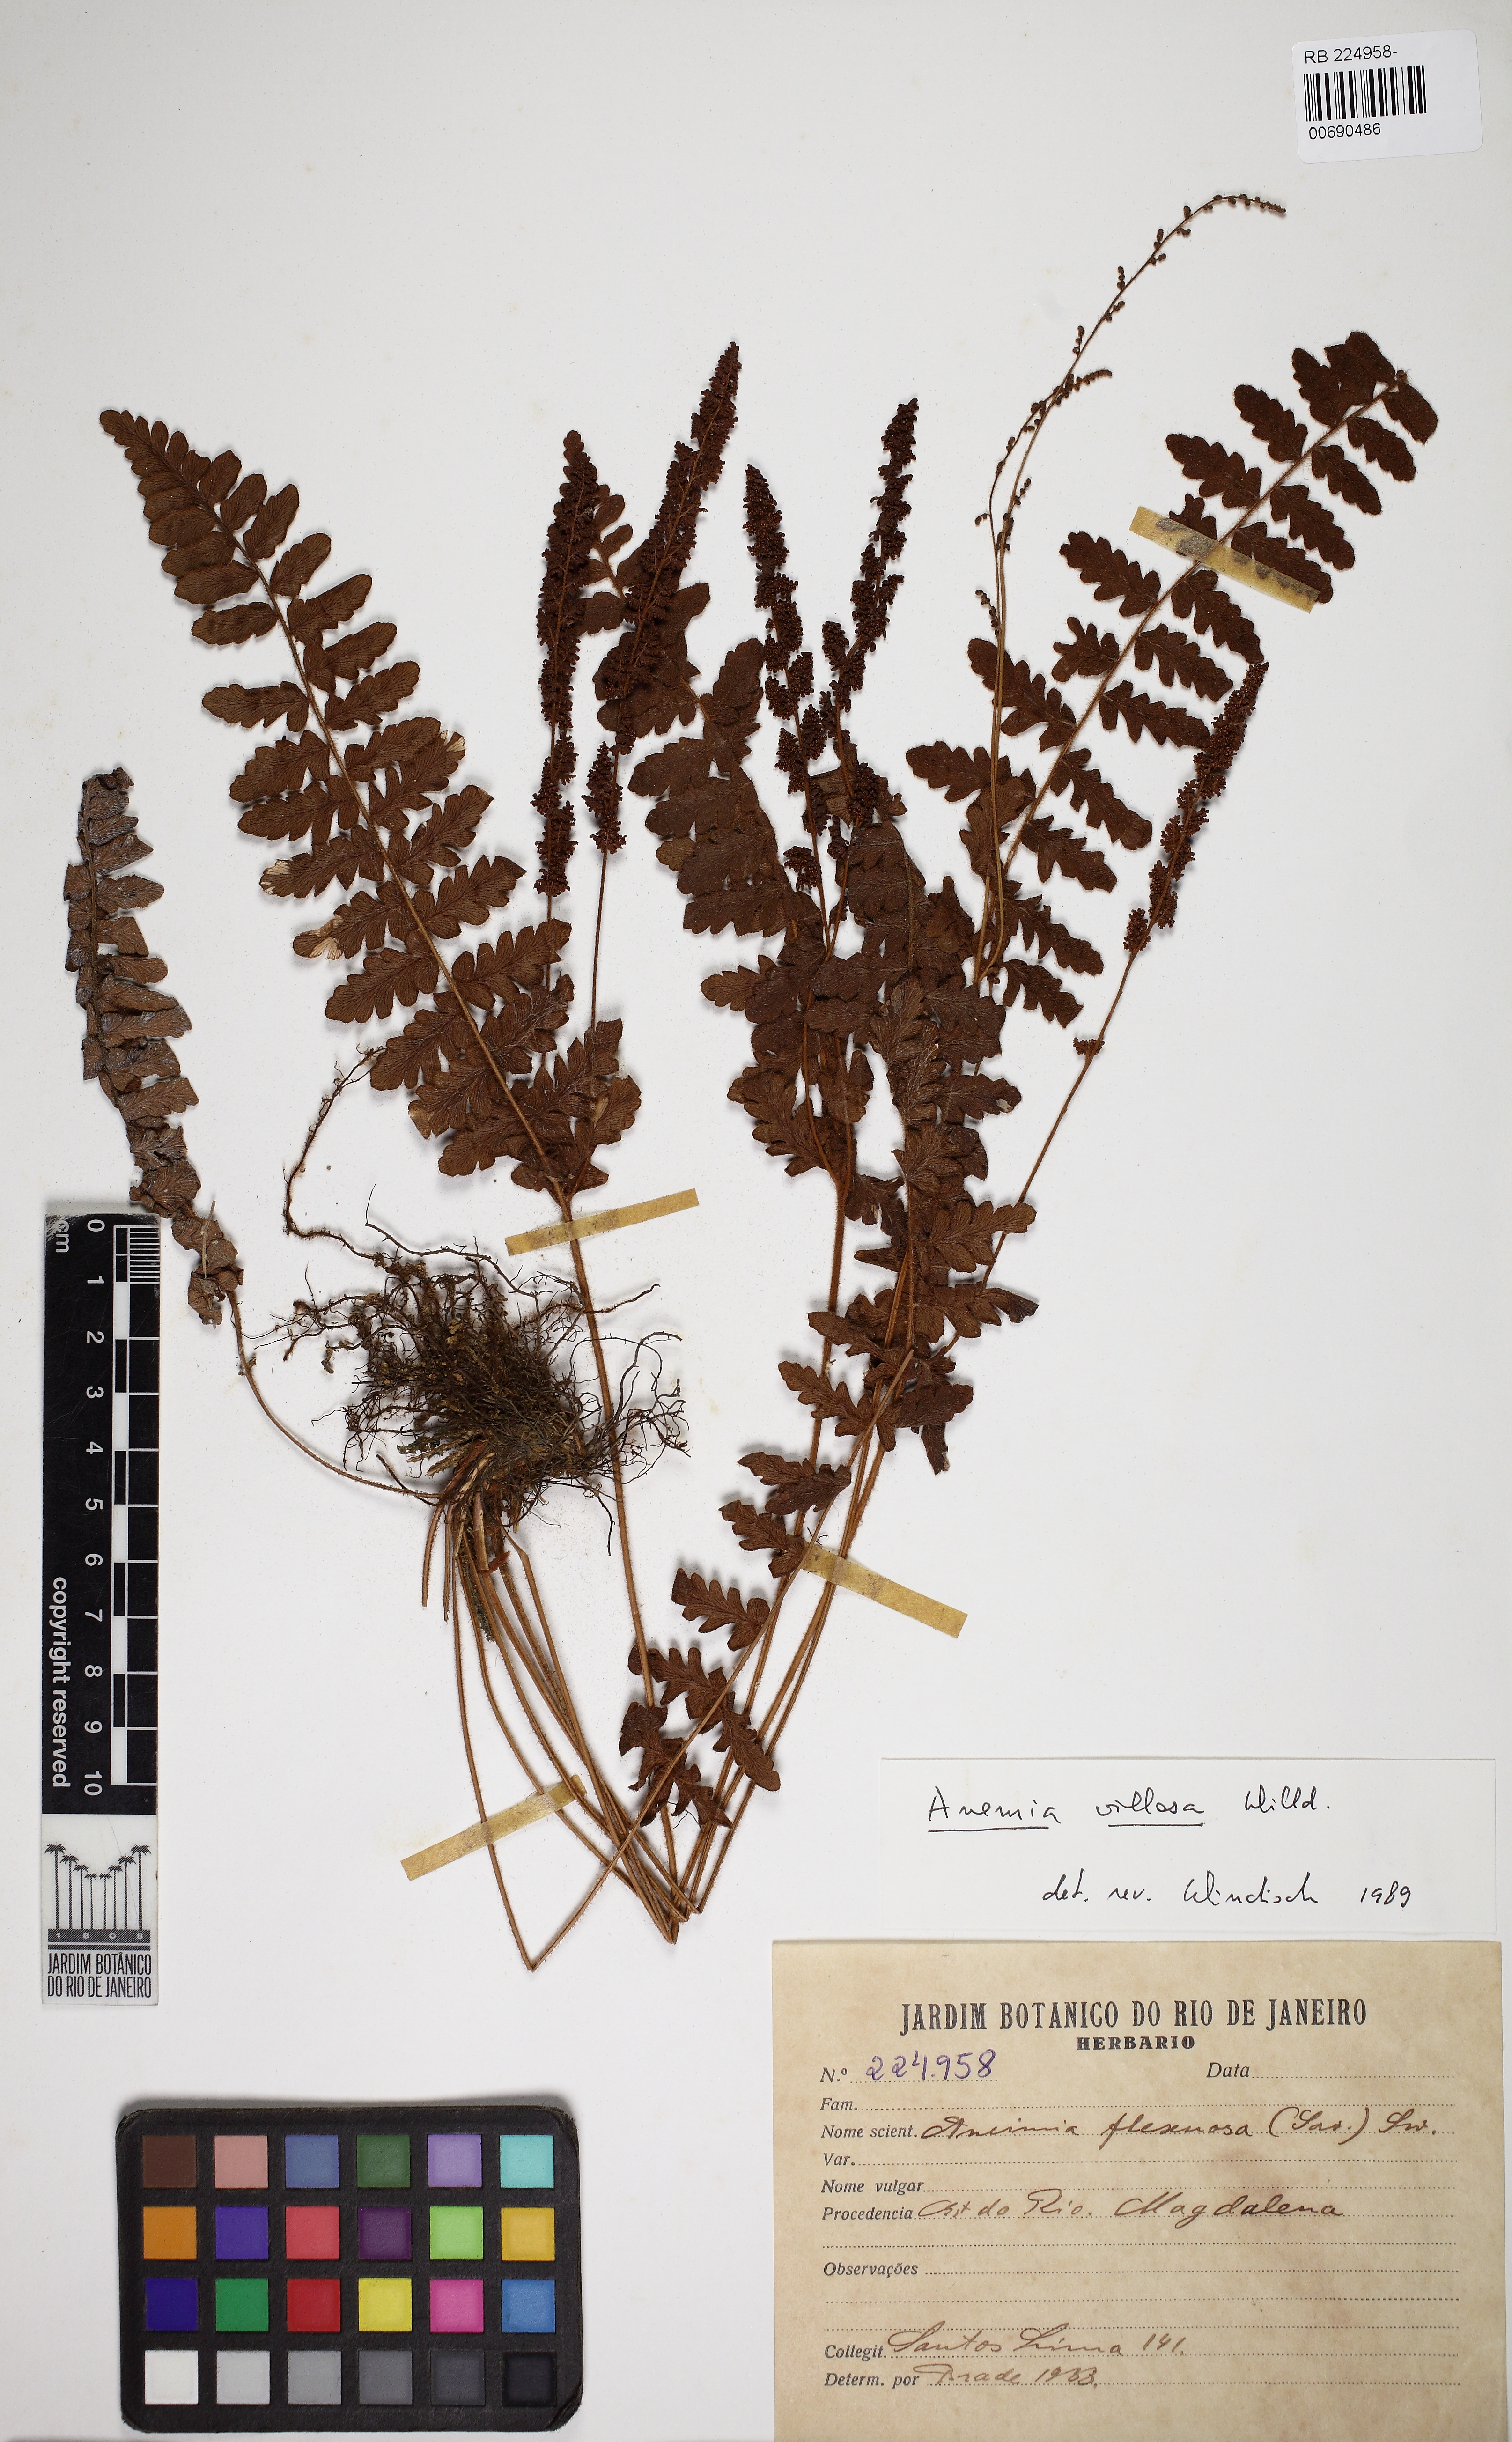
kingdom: Plantae
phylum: Tracheophyta
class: Polypodiopsida
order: Schizaeales
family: Anemiaceae
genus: Anemia
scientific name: Anemia villosa
